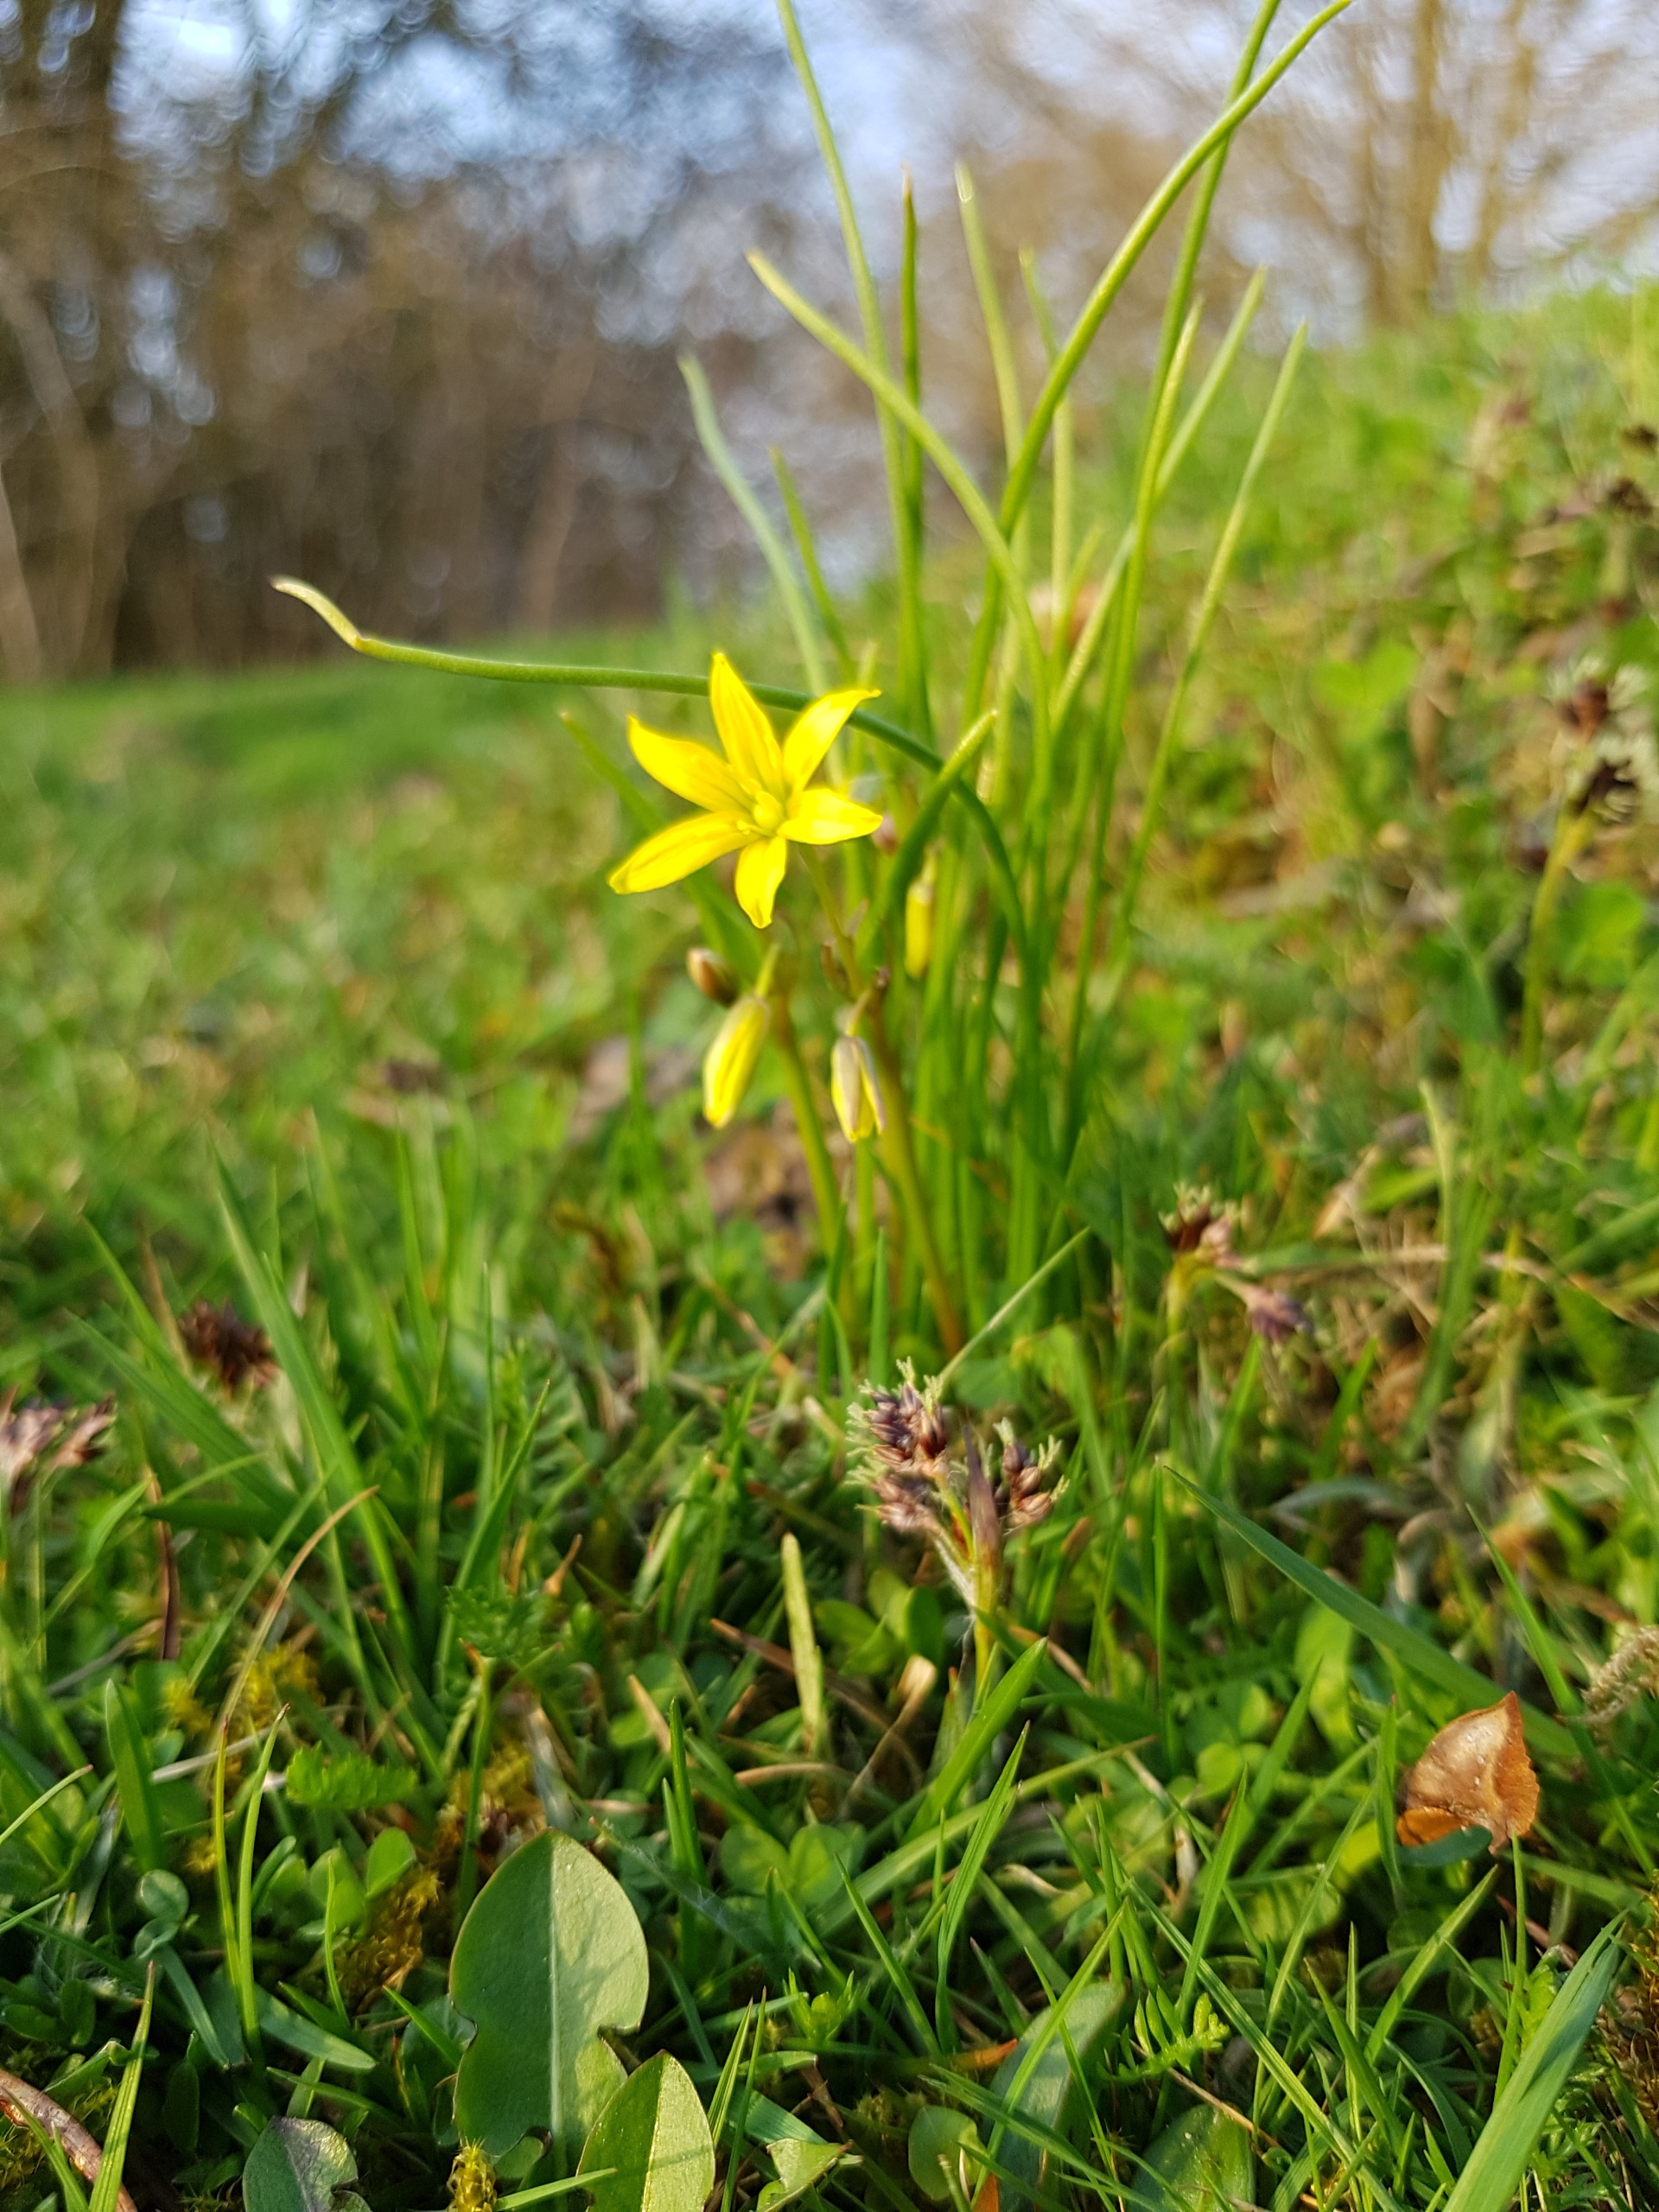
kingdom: Plantae
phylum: Tracheophyta
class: Liliopsida
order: Liliales
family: Liliaceae
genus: Gagea
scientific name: Gagea spathacea
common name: Hylster-guldstjerne
